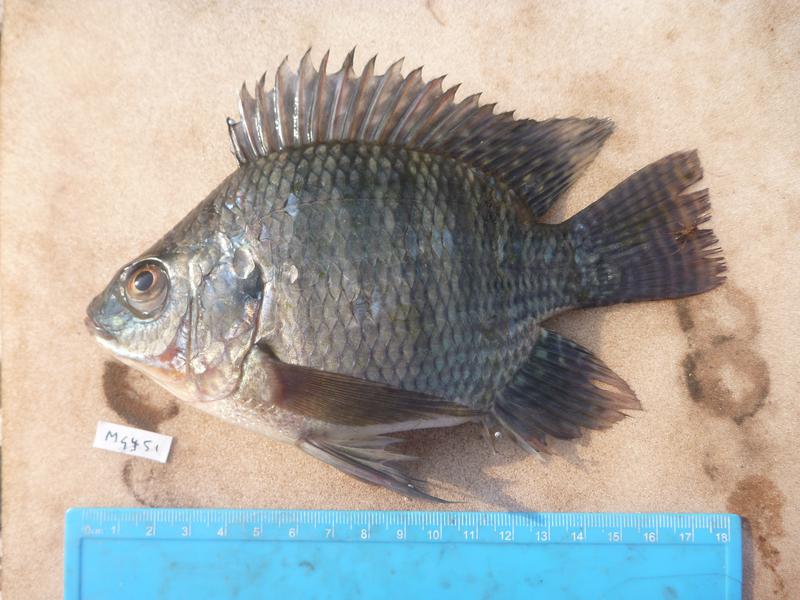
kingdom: Animalia
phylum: Chordata
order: Perciformes
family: Cichlidae
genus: Oreochromis
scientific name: Oreochromis niloticus
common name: Nile tilapia
